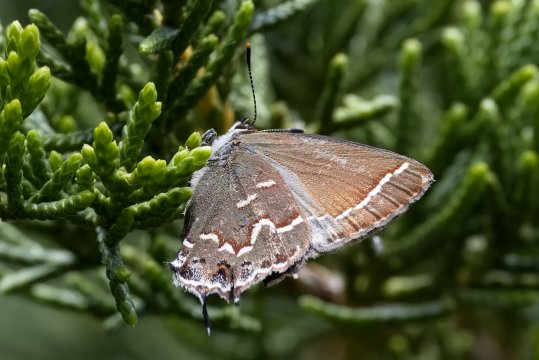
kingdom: Animalia
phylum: Arthropoda
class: Insecta
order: Lepidoptera
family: Lycaenidae
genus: Mitoura
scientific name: Mitoura gryneus
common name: Juniper Hairstreak
